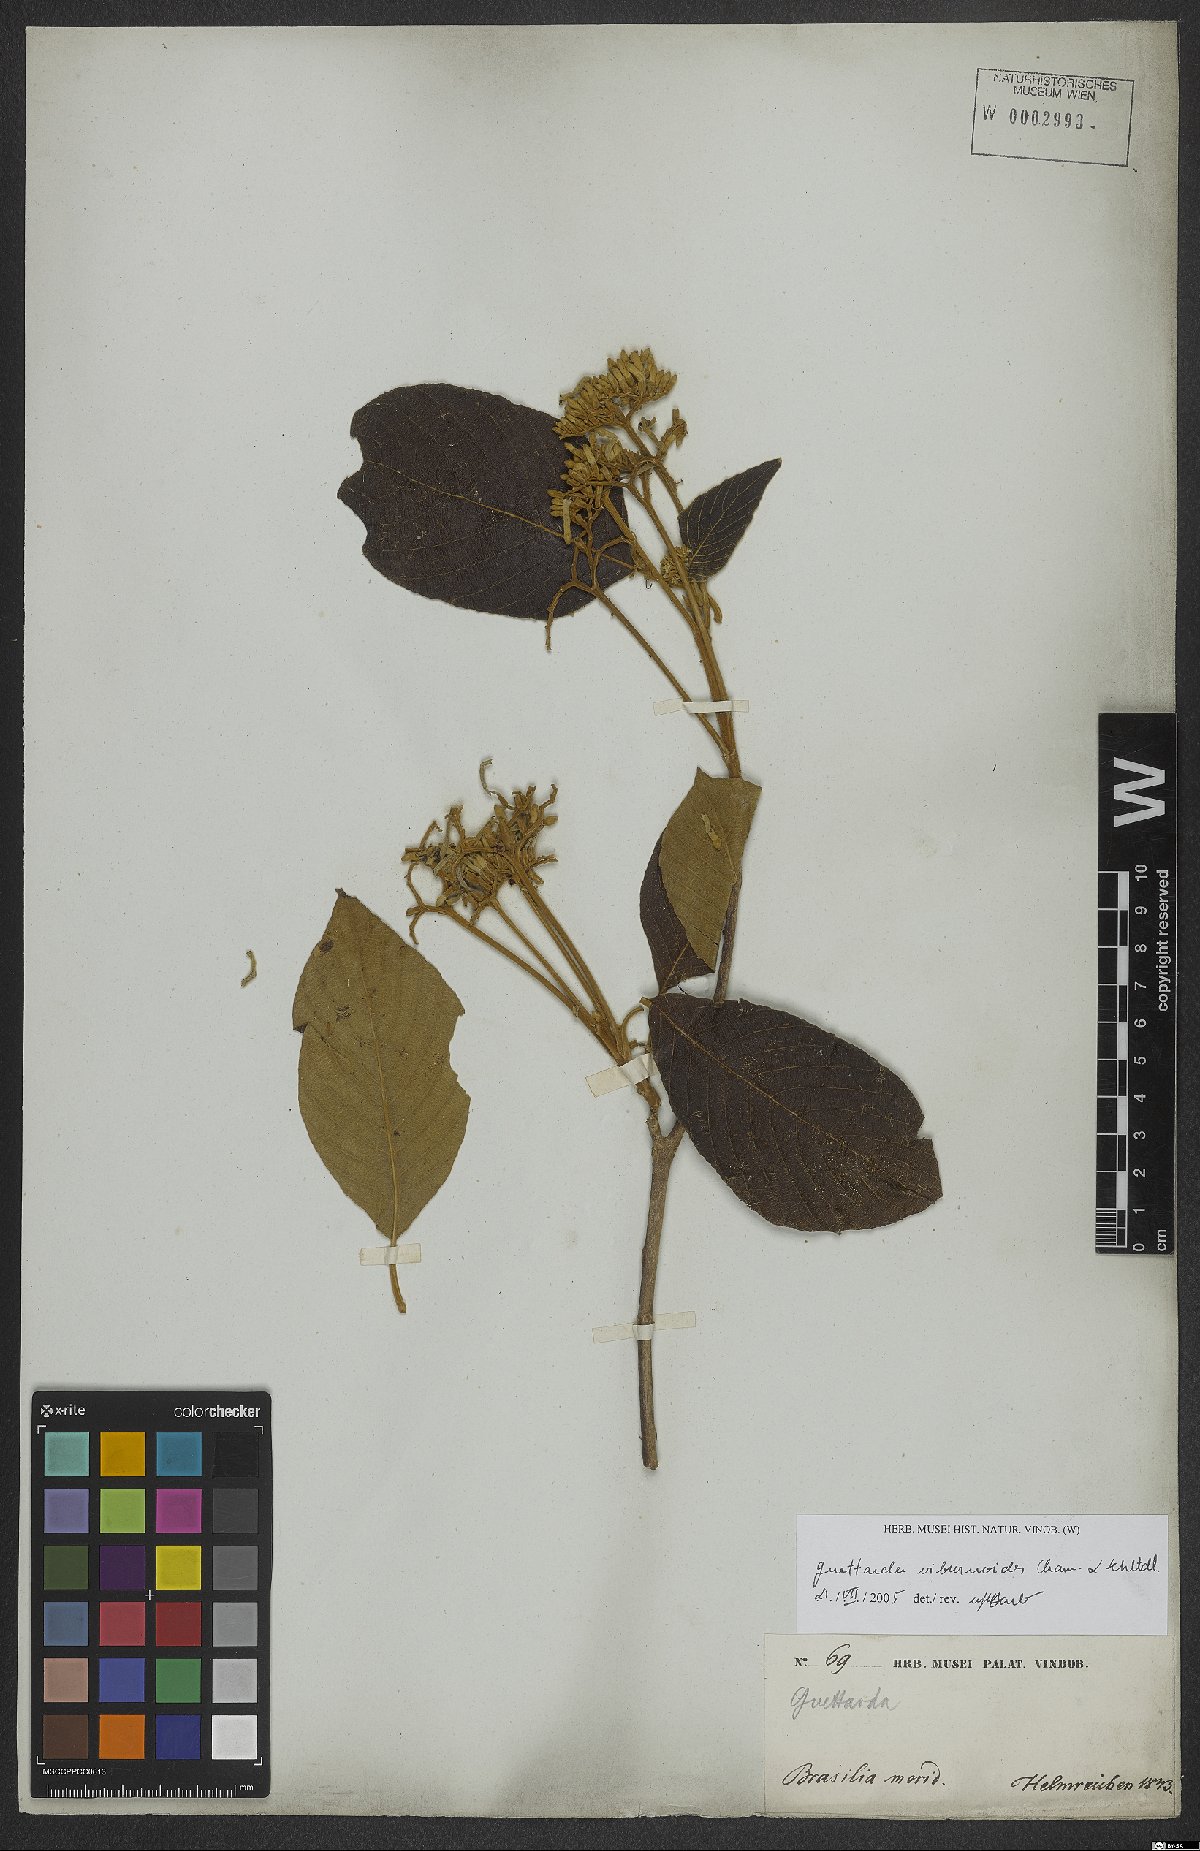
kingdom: Plantae
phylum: Tracheophyta
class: Magnoliopsida
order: Gentianales
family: Rubiaceae
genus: Guettarda
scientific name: Guettarda viburnoides
